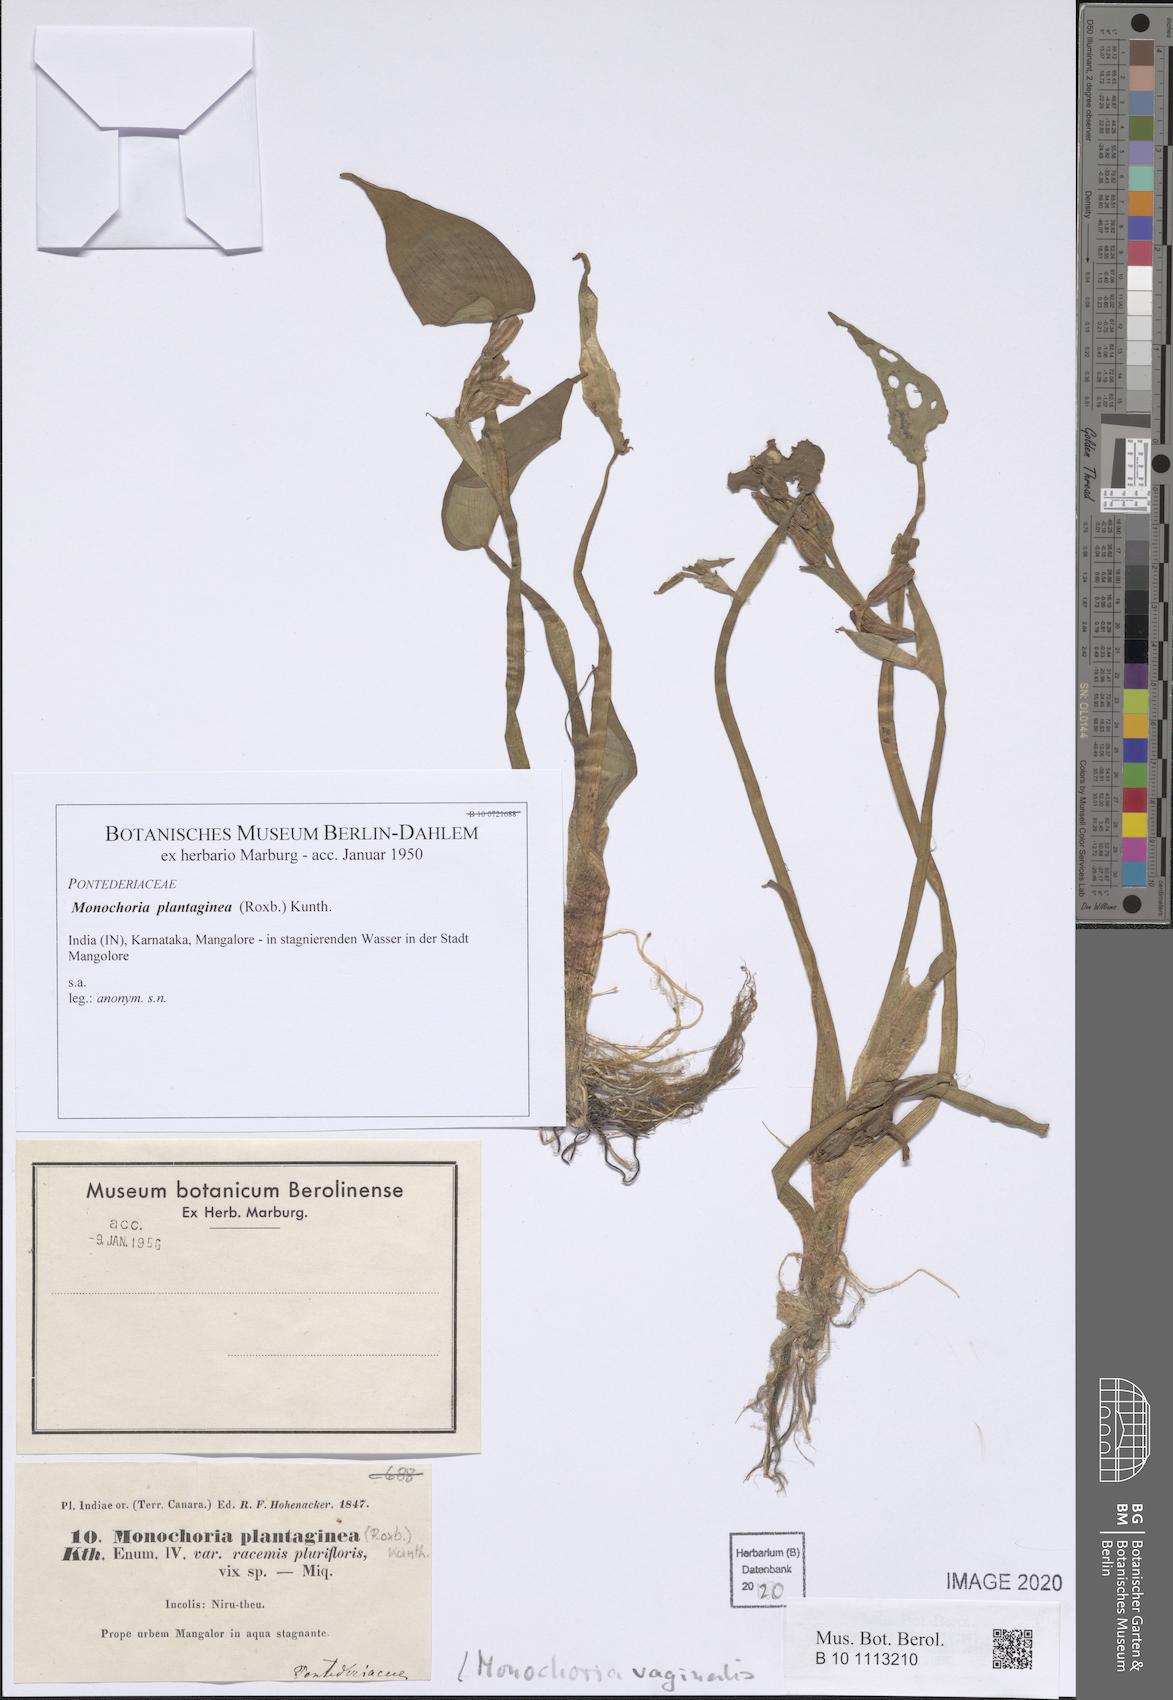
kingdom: Plantae
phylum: Tracheophyta
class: Liliopsida
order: Commelinales
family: Pontederiaceae
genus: Pontederia
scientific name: Pontederia vaginalis
